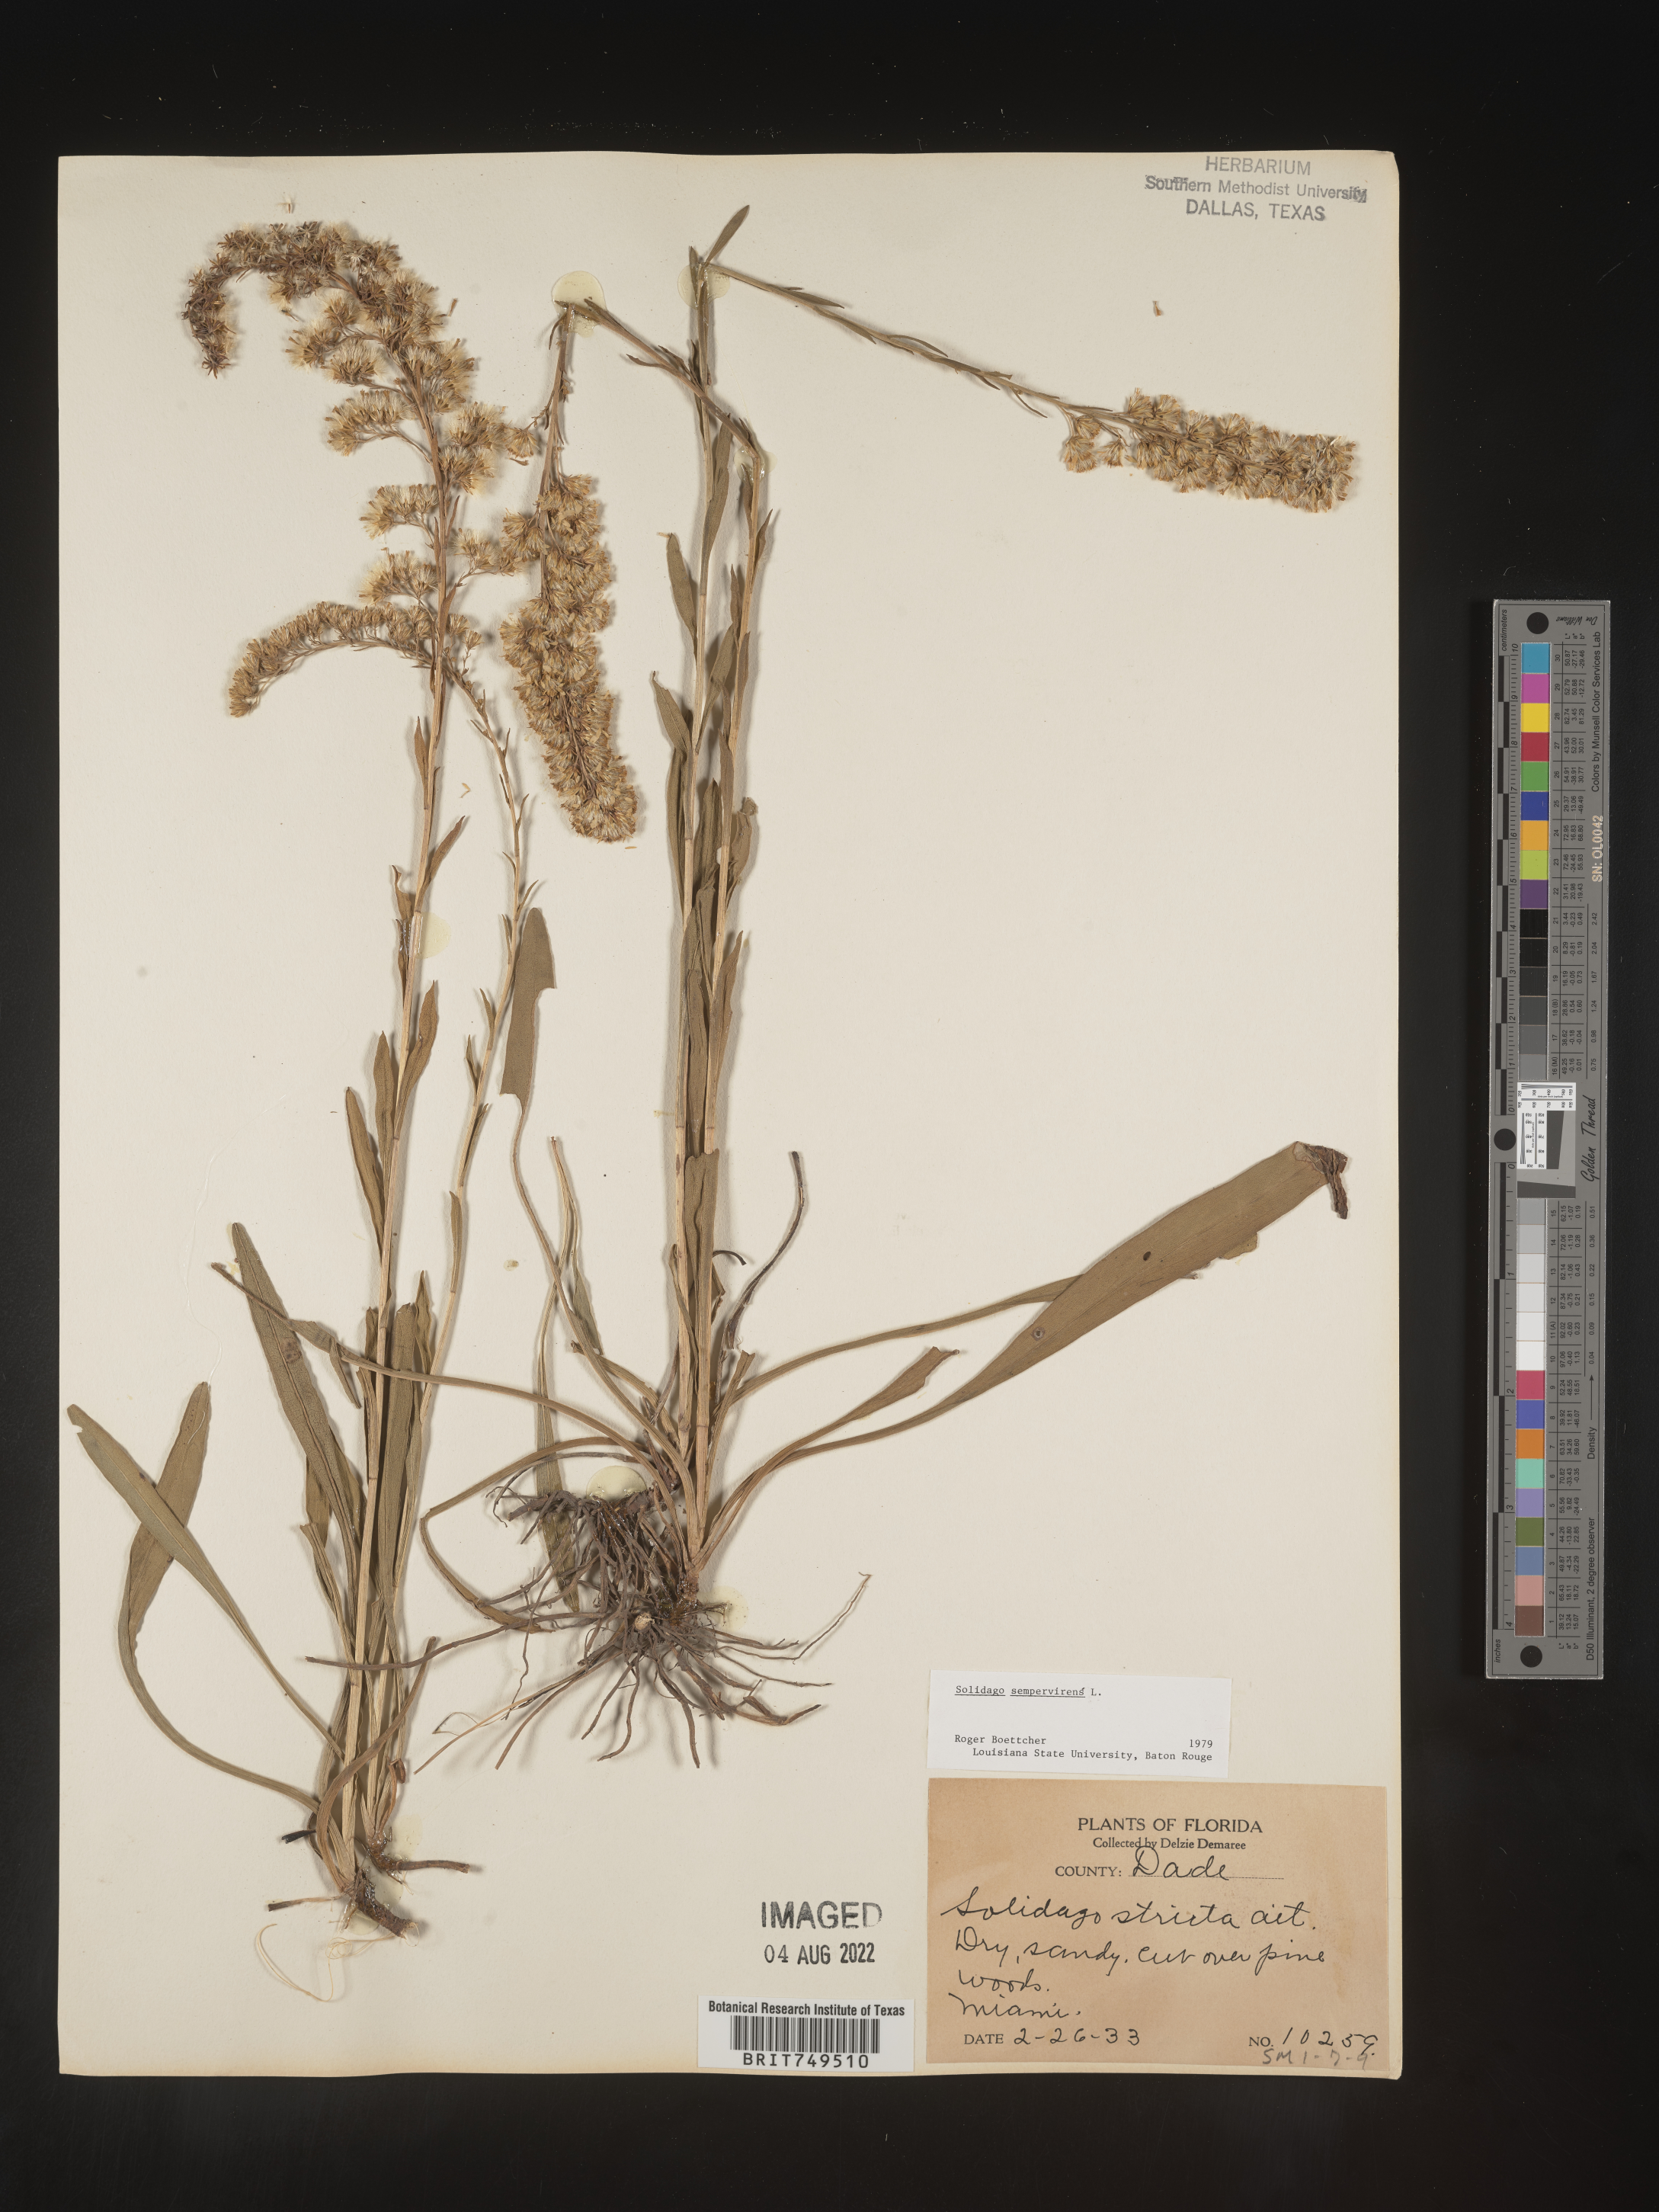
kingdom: Plantae
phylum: Tracheophyta
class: Magnoliopsida
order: Asterales
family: Asteraceae
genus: Solidago
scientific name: Solidago stricta
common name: Pine barren bog goldenrod
